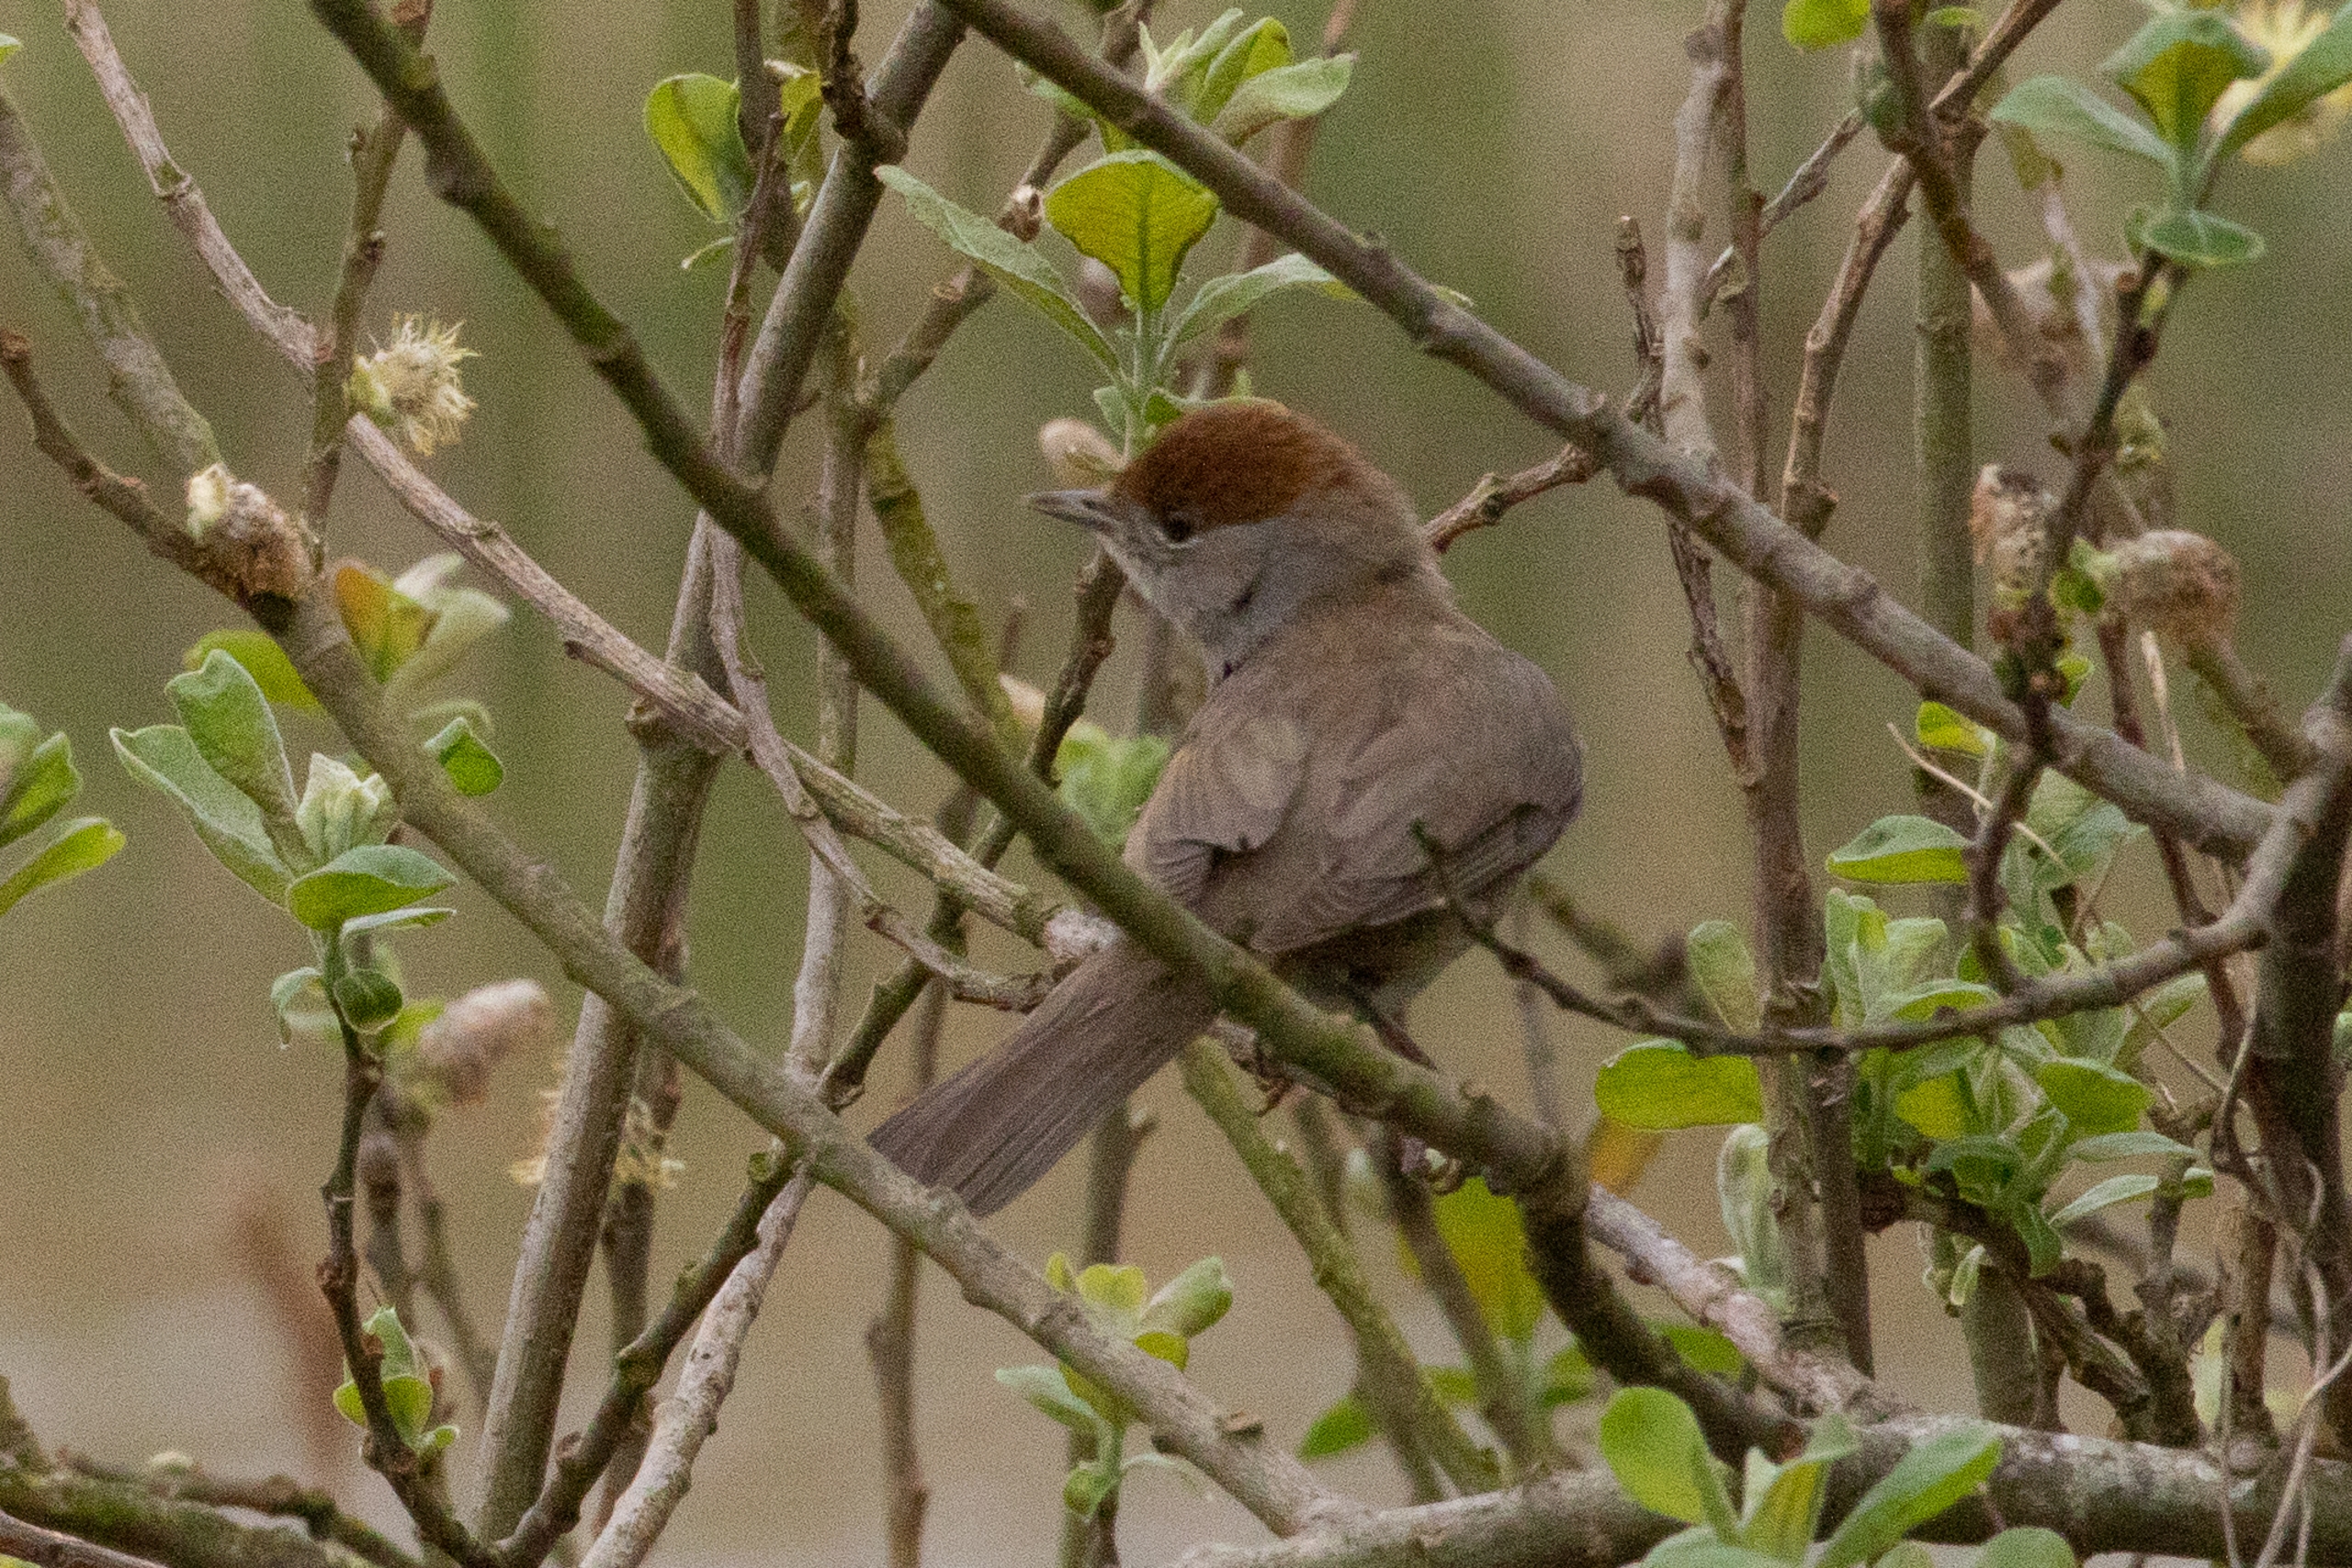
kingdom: Animalia
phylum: Chordata
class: Aves
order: Passeriformes
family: Sylviidae
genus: Sylvia
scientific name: Sylvia atricapilla
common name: Munk
